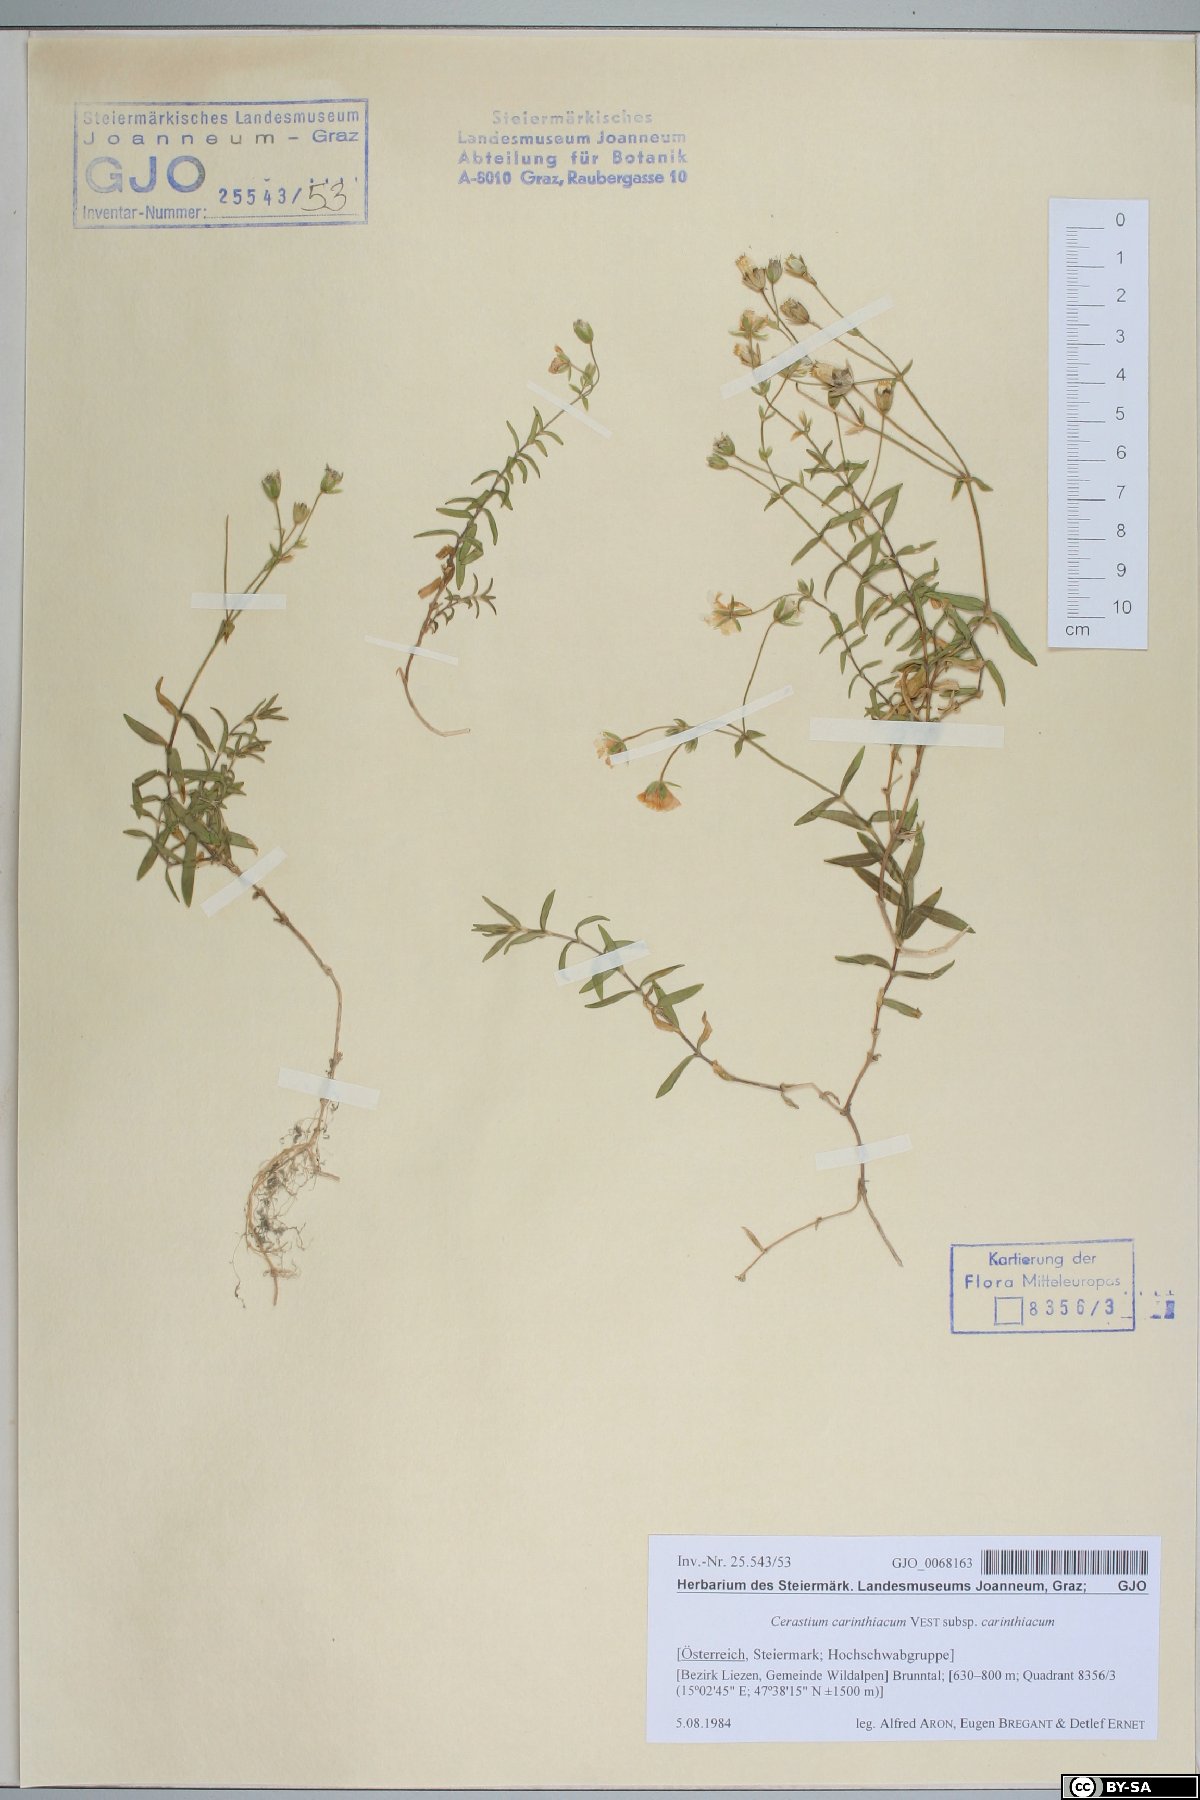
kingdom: Plantae
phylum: Tracheophyta
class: Magnoliopsida
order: Caryophyllales
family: Caryophyllaceae
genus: Cerastium
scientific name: Cerastium carinthiacum
